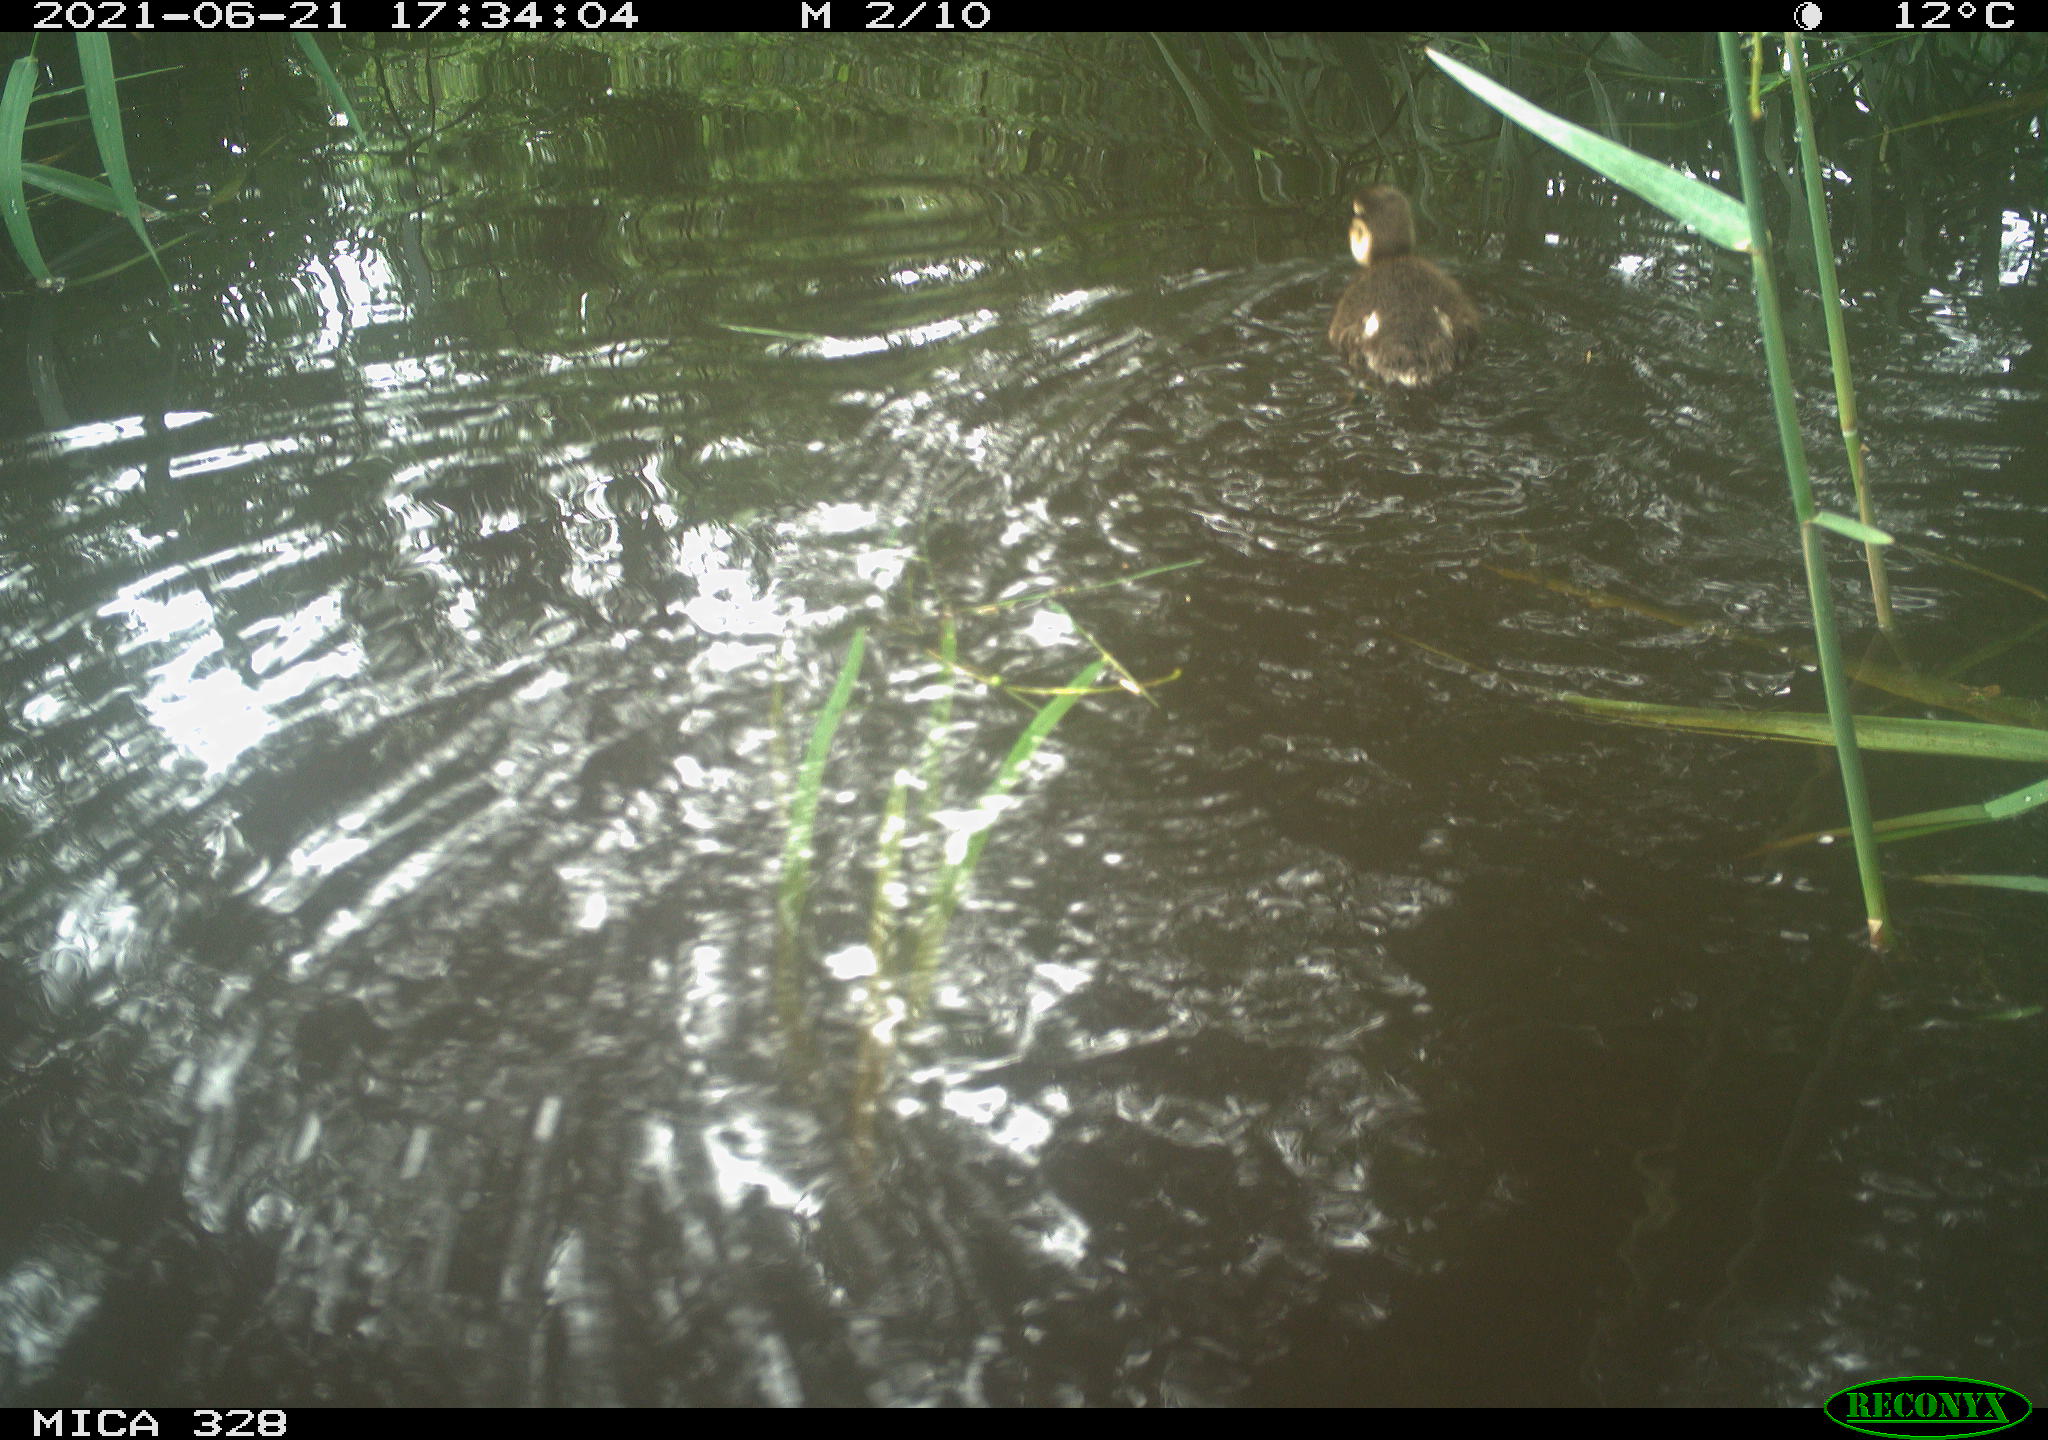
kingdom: Animalia
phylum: Chordata
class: Aves
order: Anseriformes
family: Anatidae
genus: Aix
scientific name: Aix galericulata
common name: Mandarin duck
